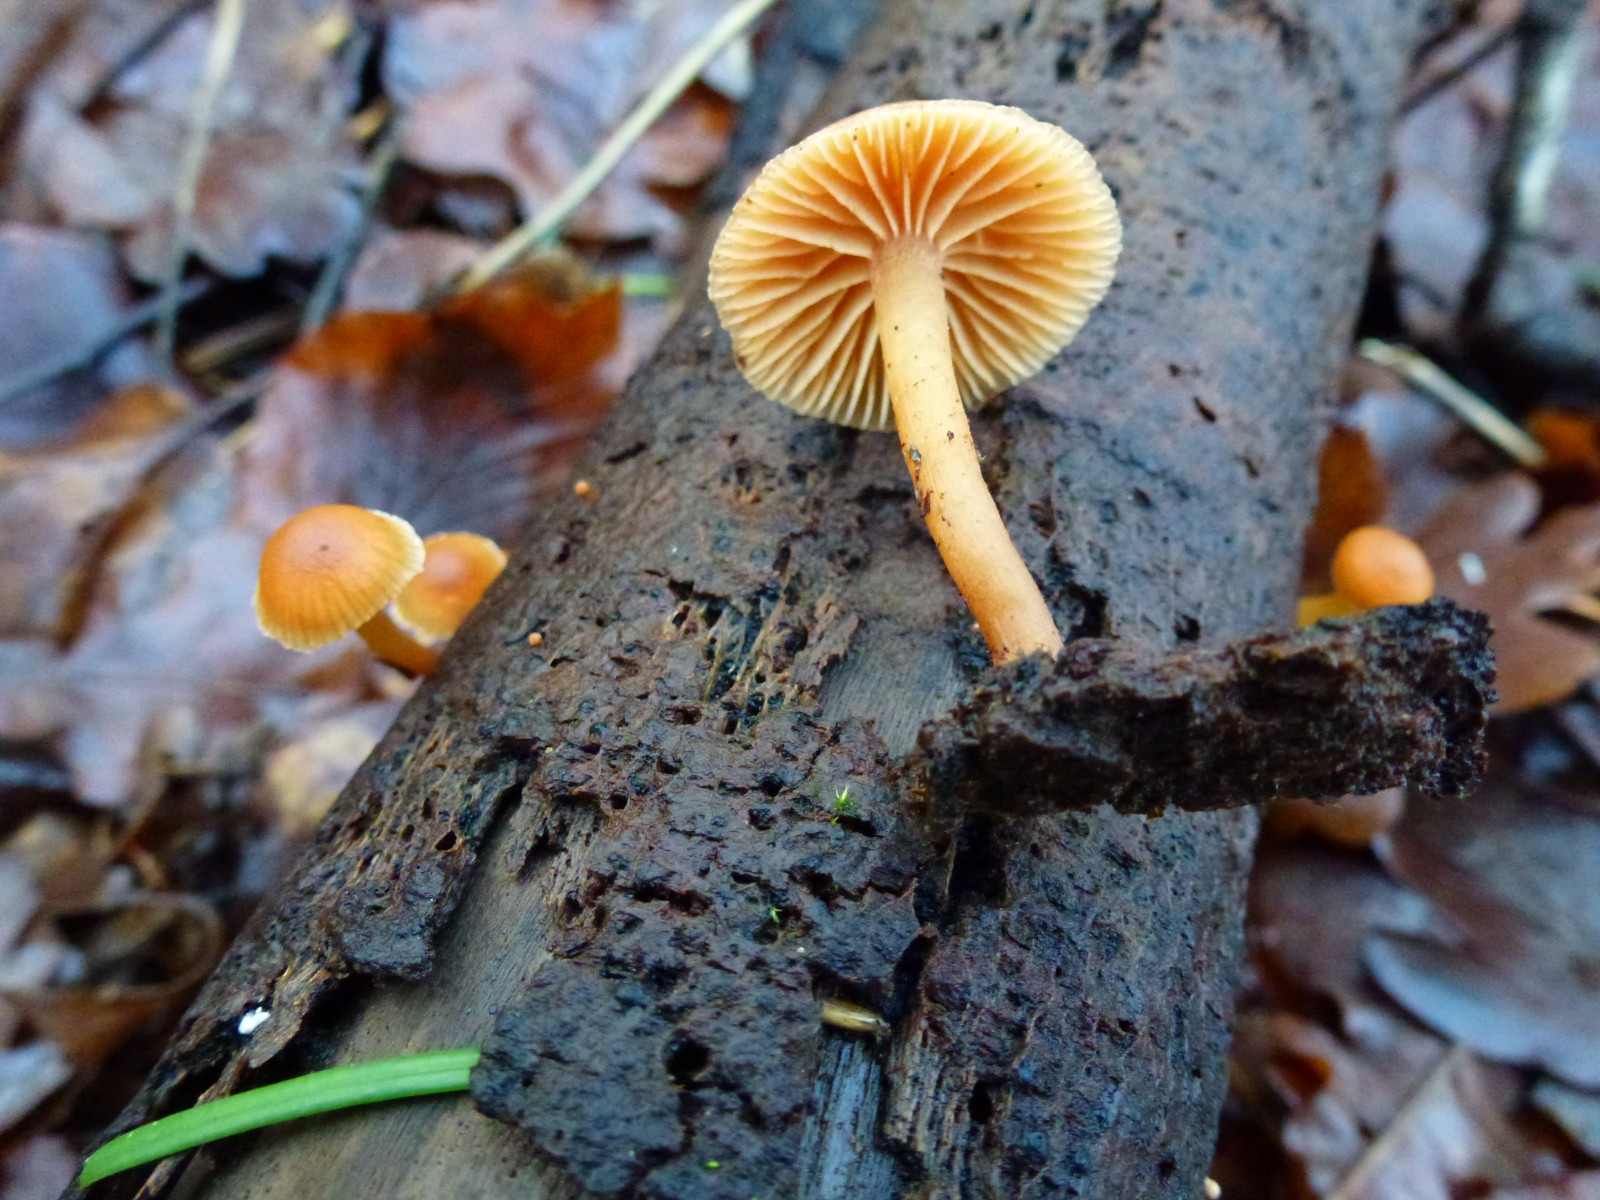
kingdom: Fungi
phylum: Basidiomycota
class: Agaricomycetes
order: Agaricales
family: Tubariaceae
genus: Tubaria
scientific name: Tubaria furfuracea
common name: kliddet fnughat
